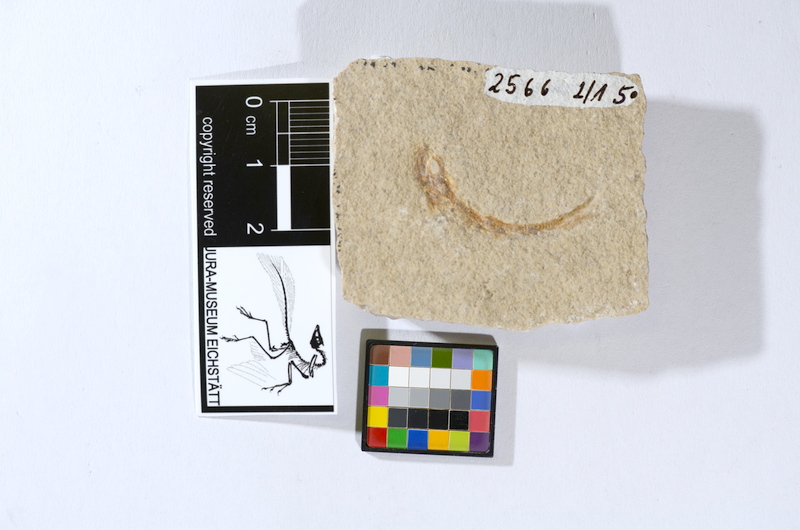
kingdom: Animalia
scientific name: Animalia
